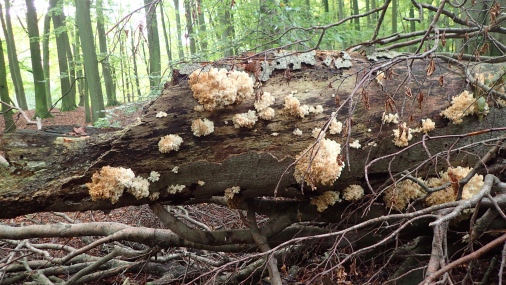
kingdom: Fungi
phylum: Basidiomycota
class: Agaricomycetes
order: Russulales
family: Hericiaceae
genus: Hericium
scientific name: Hericium coralloides
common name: koralpigsvamp
